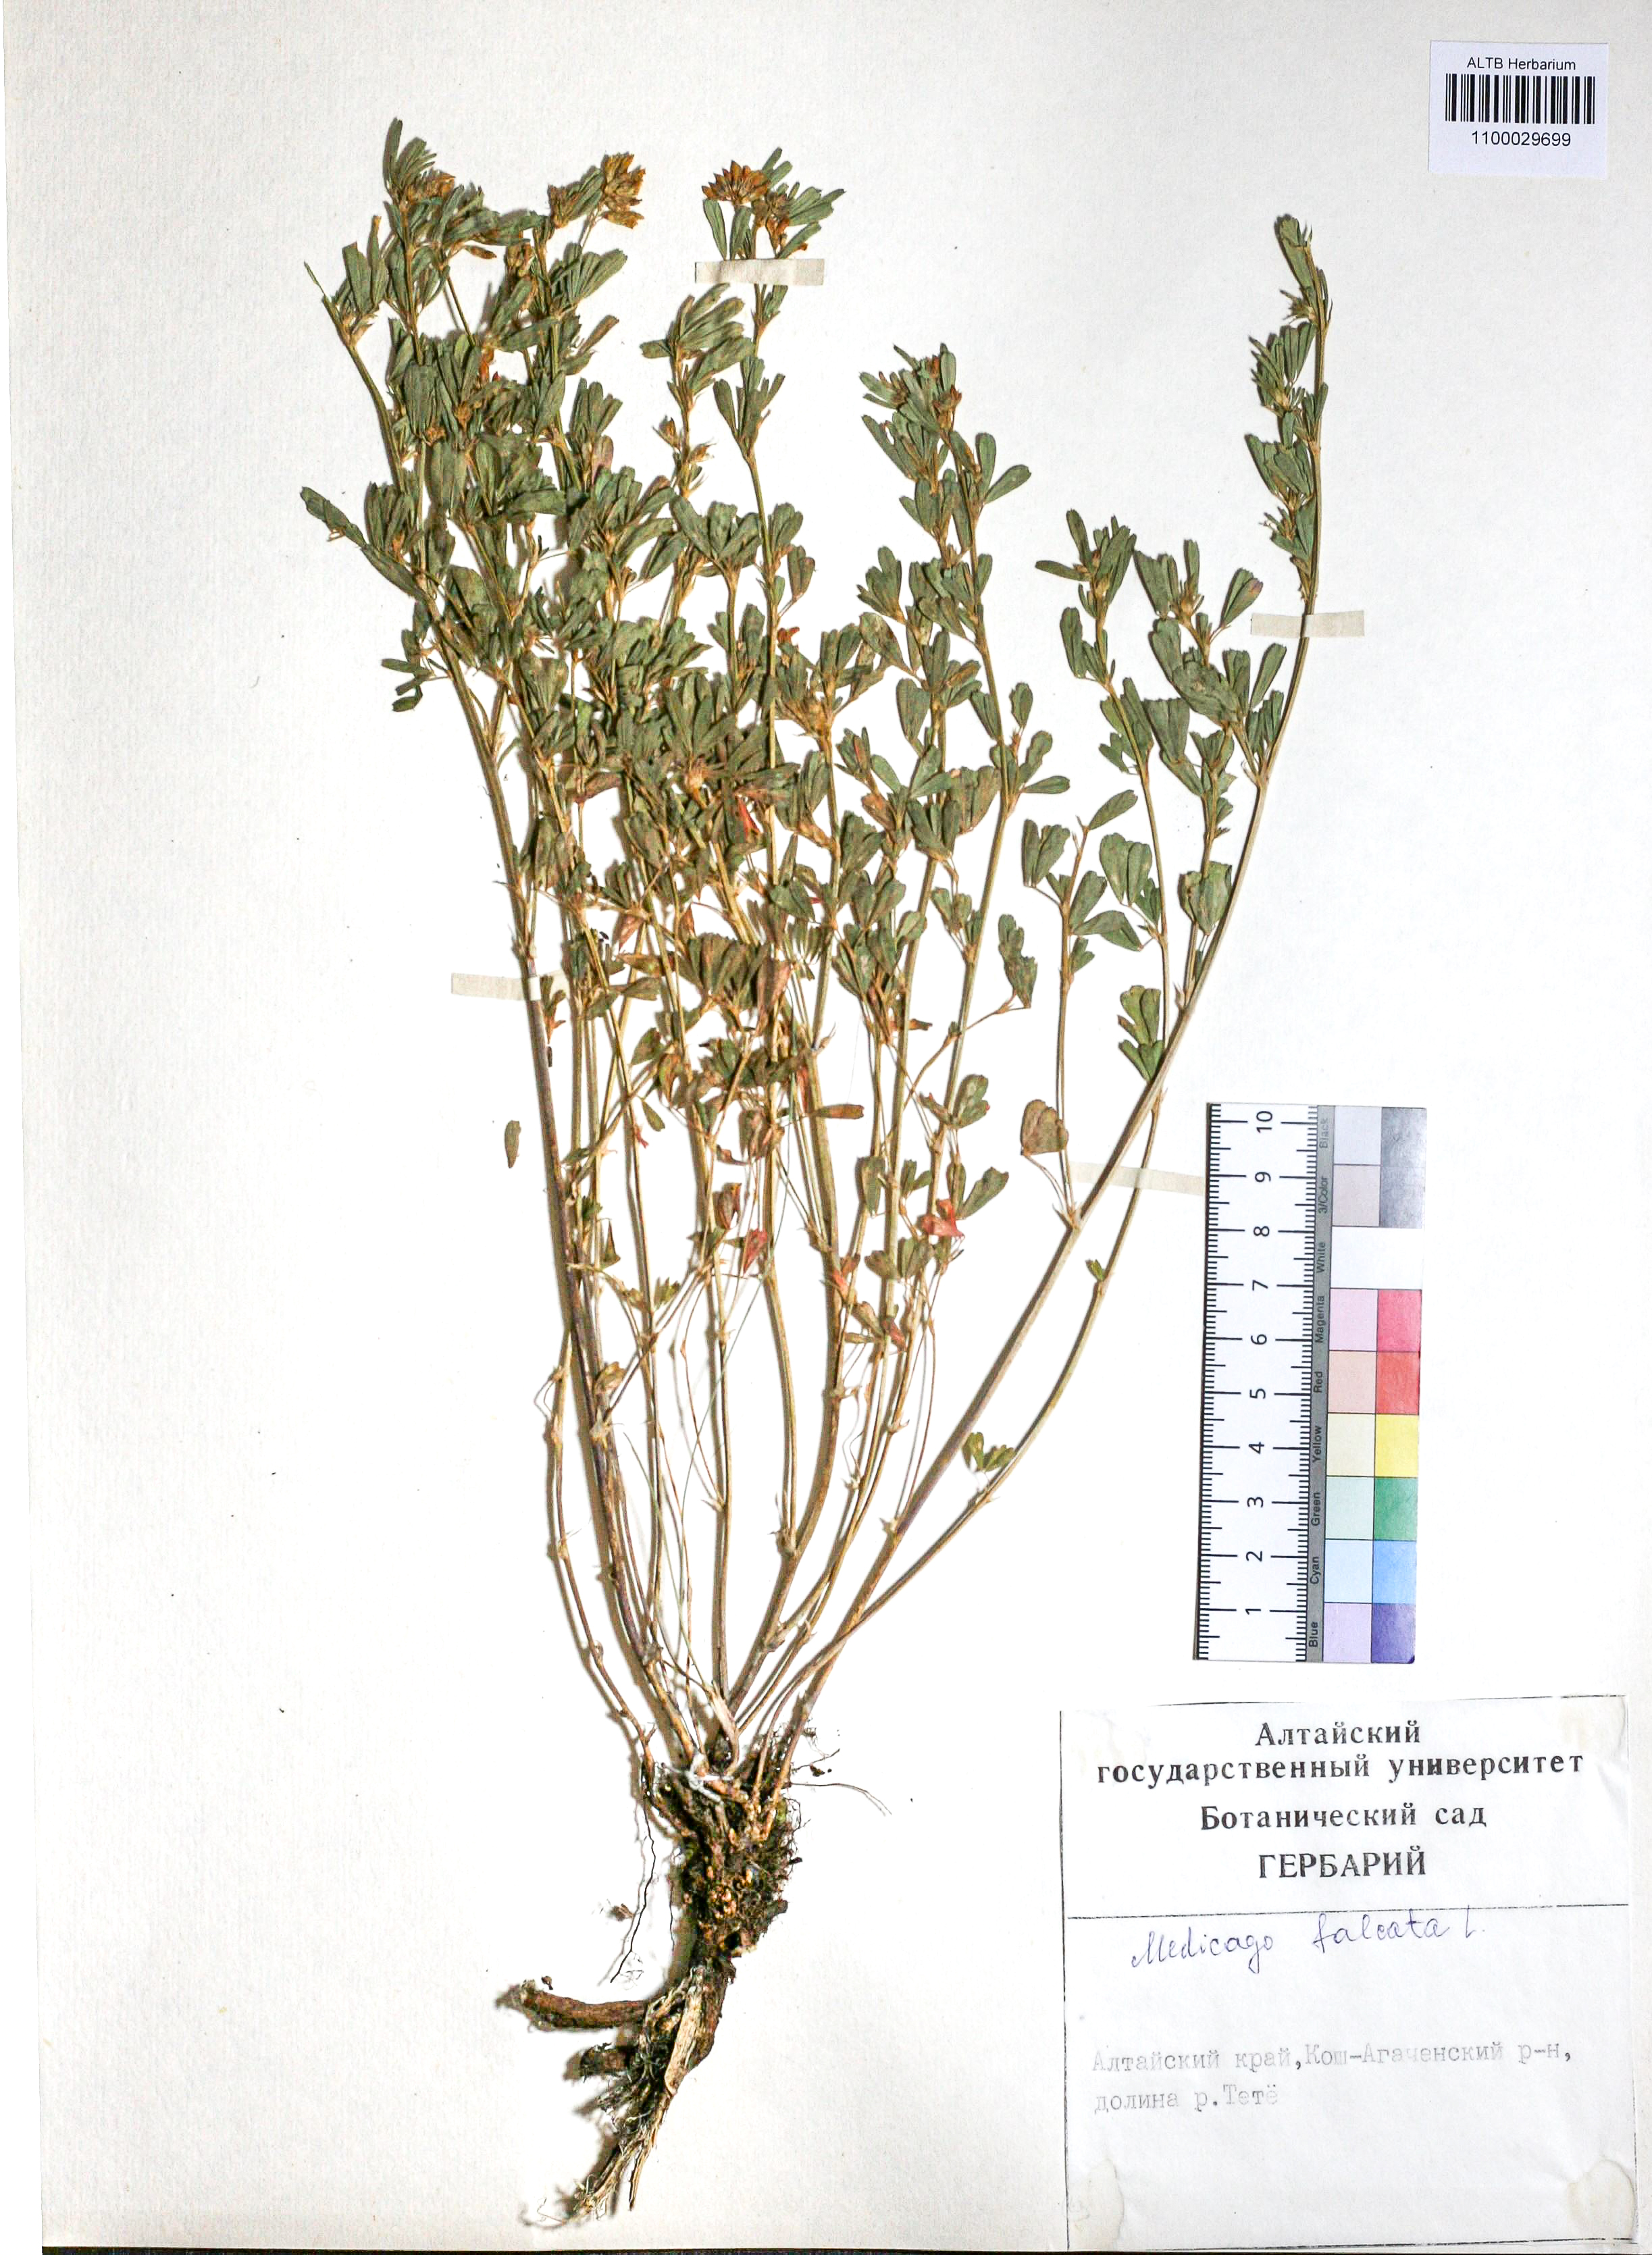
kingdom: Plantae
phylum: Tracheophyta
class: Magnoliopsida
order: Fabales
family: Fabaceae
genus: Medicago
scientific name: Medicago falcata
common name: Sickle medick
